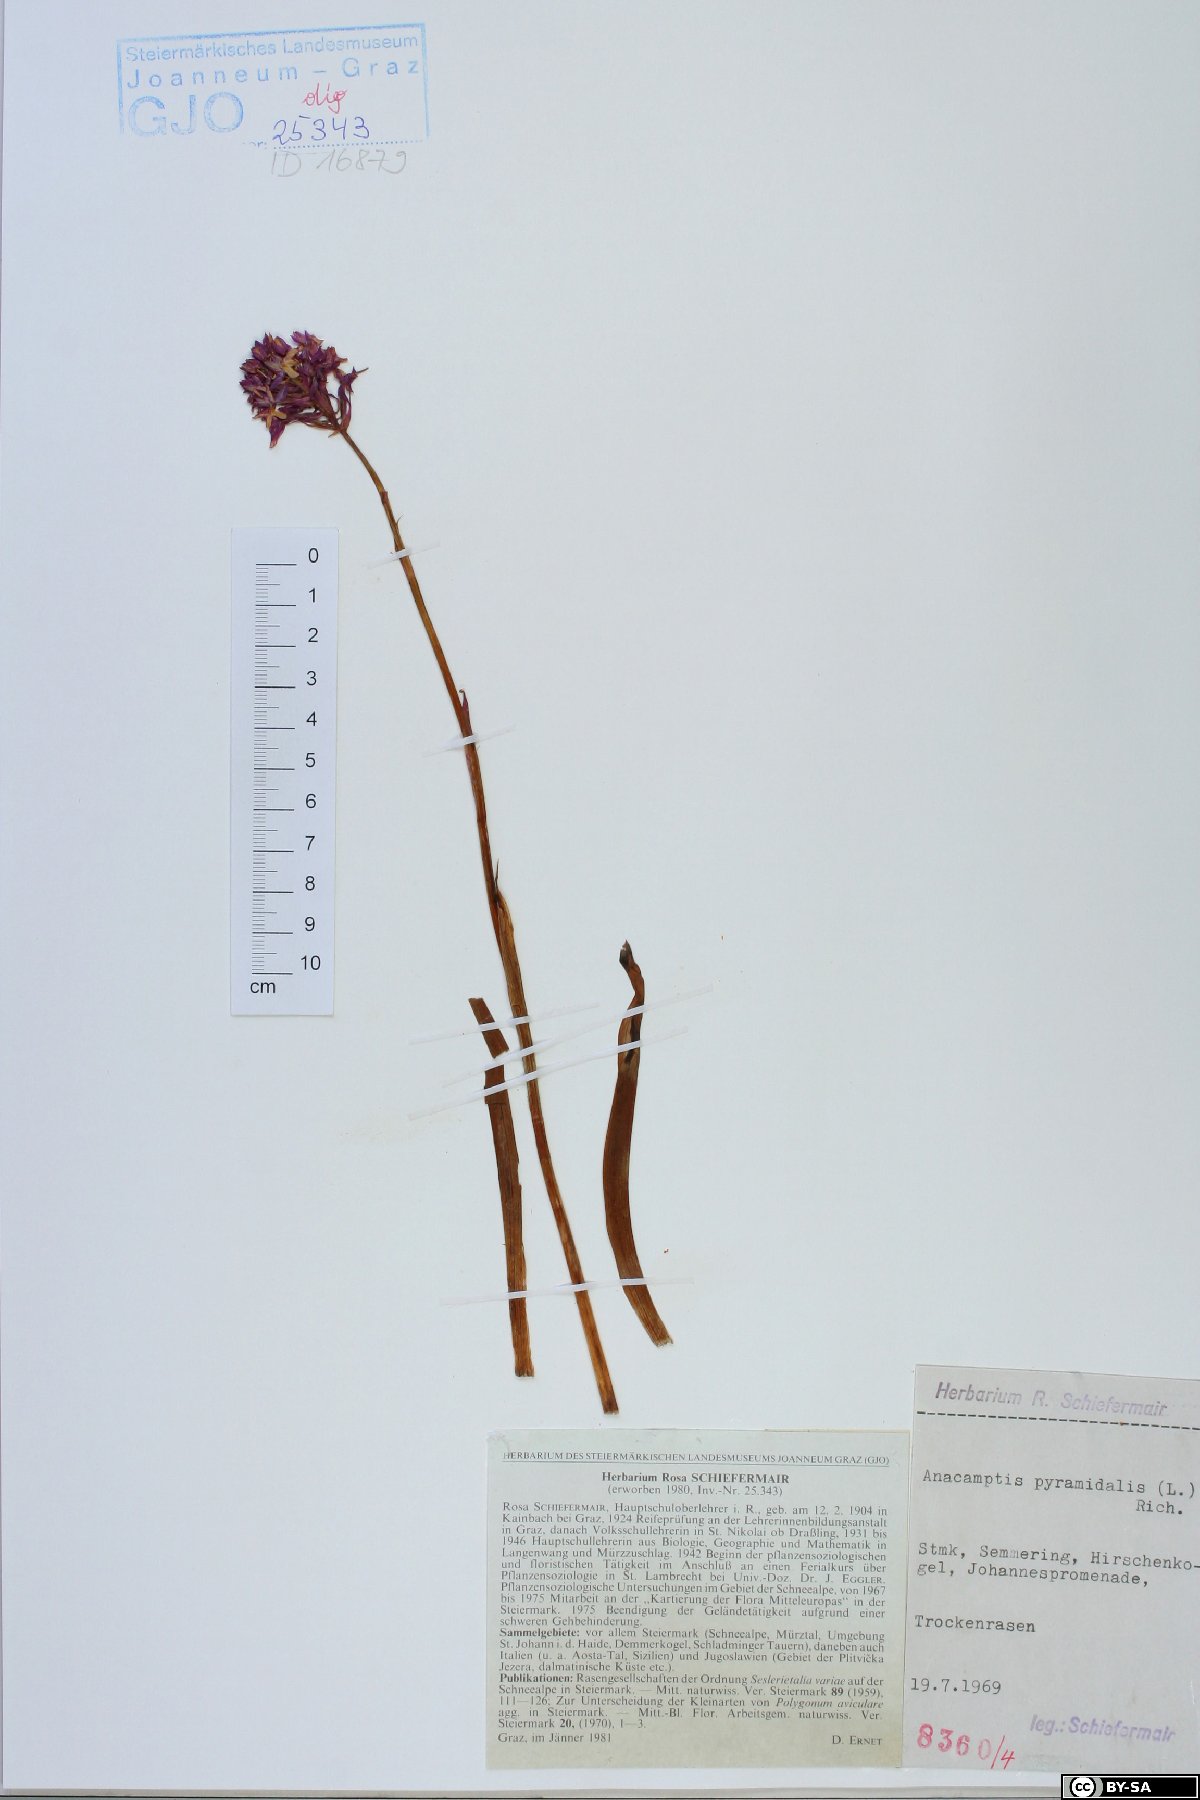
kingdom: Plantae
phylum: Tracheophyta
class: Liliopsida
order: Asparagales
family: Orchidaceae
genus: Anacamptis
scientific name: Anacamptis pyramidalis
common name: Pyramidal orchid
